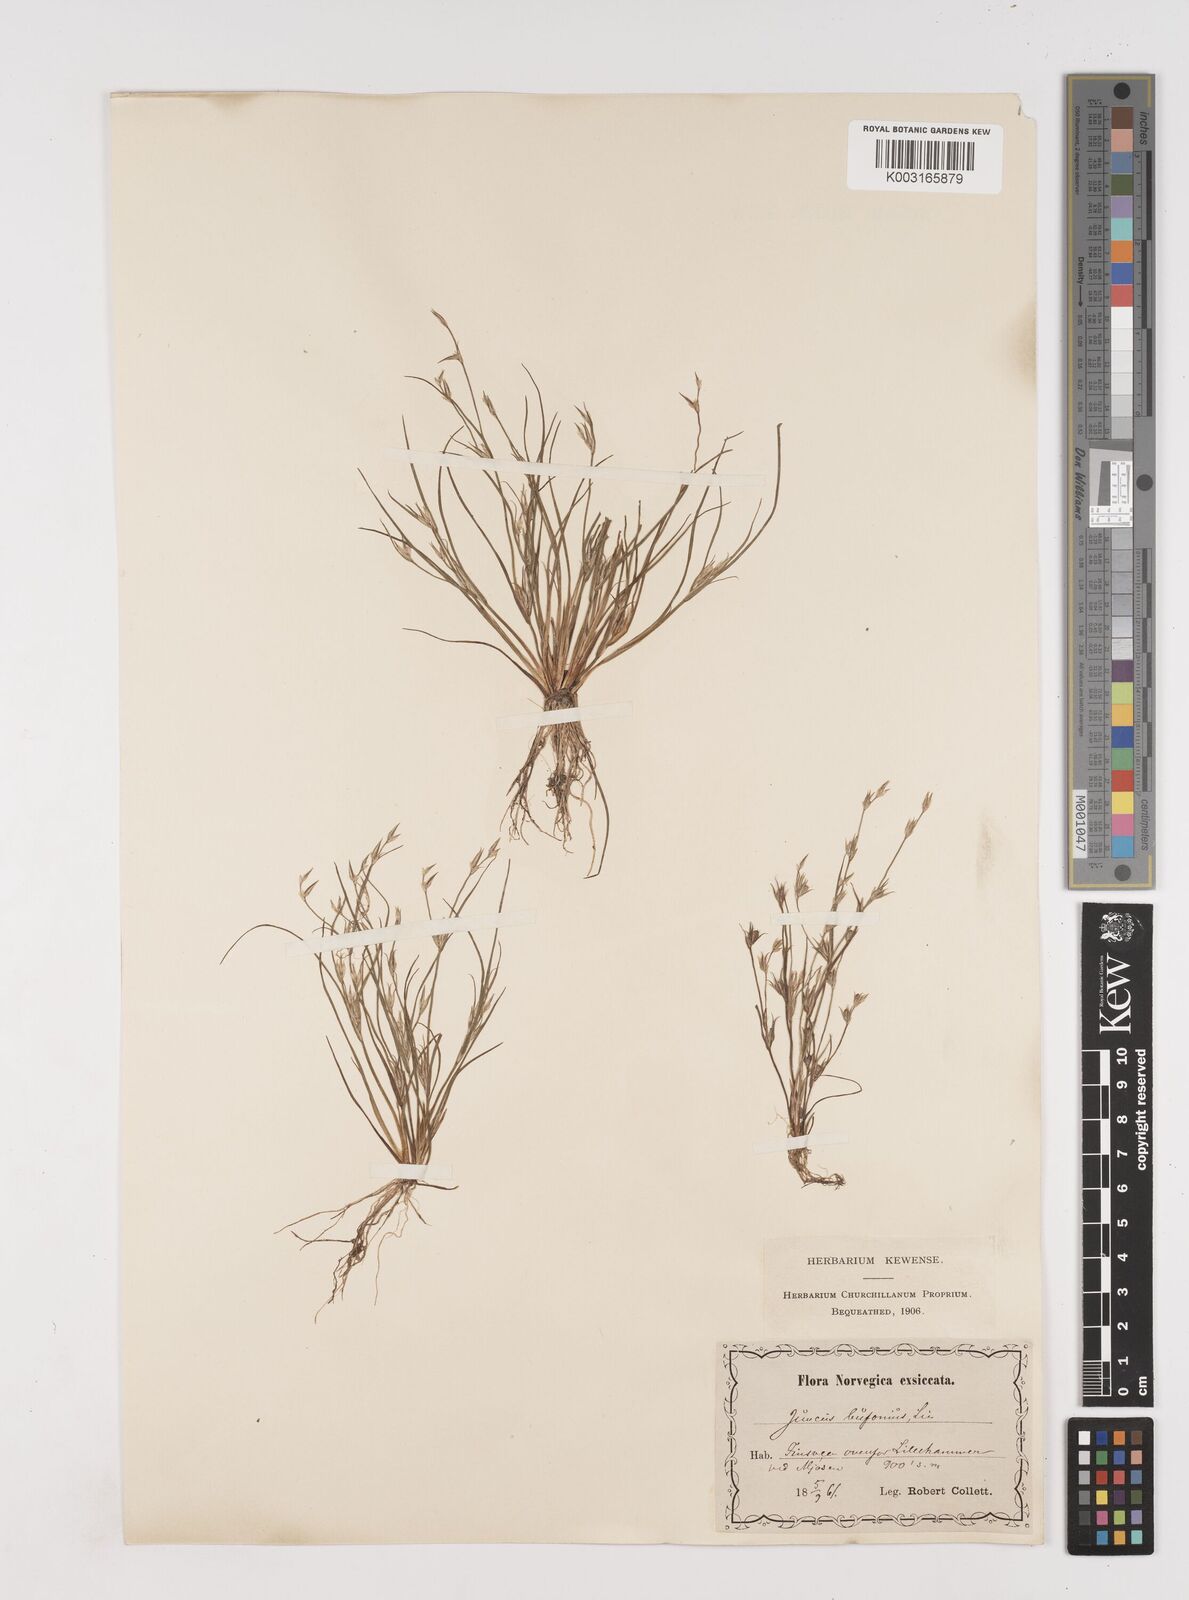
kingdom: Plantae
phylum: Tracheophyta
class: Liliopsida
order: Poales
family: Juncaceae
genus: Juncus
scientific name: Juncus bufonius
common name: Toad rush
